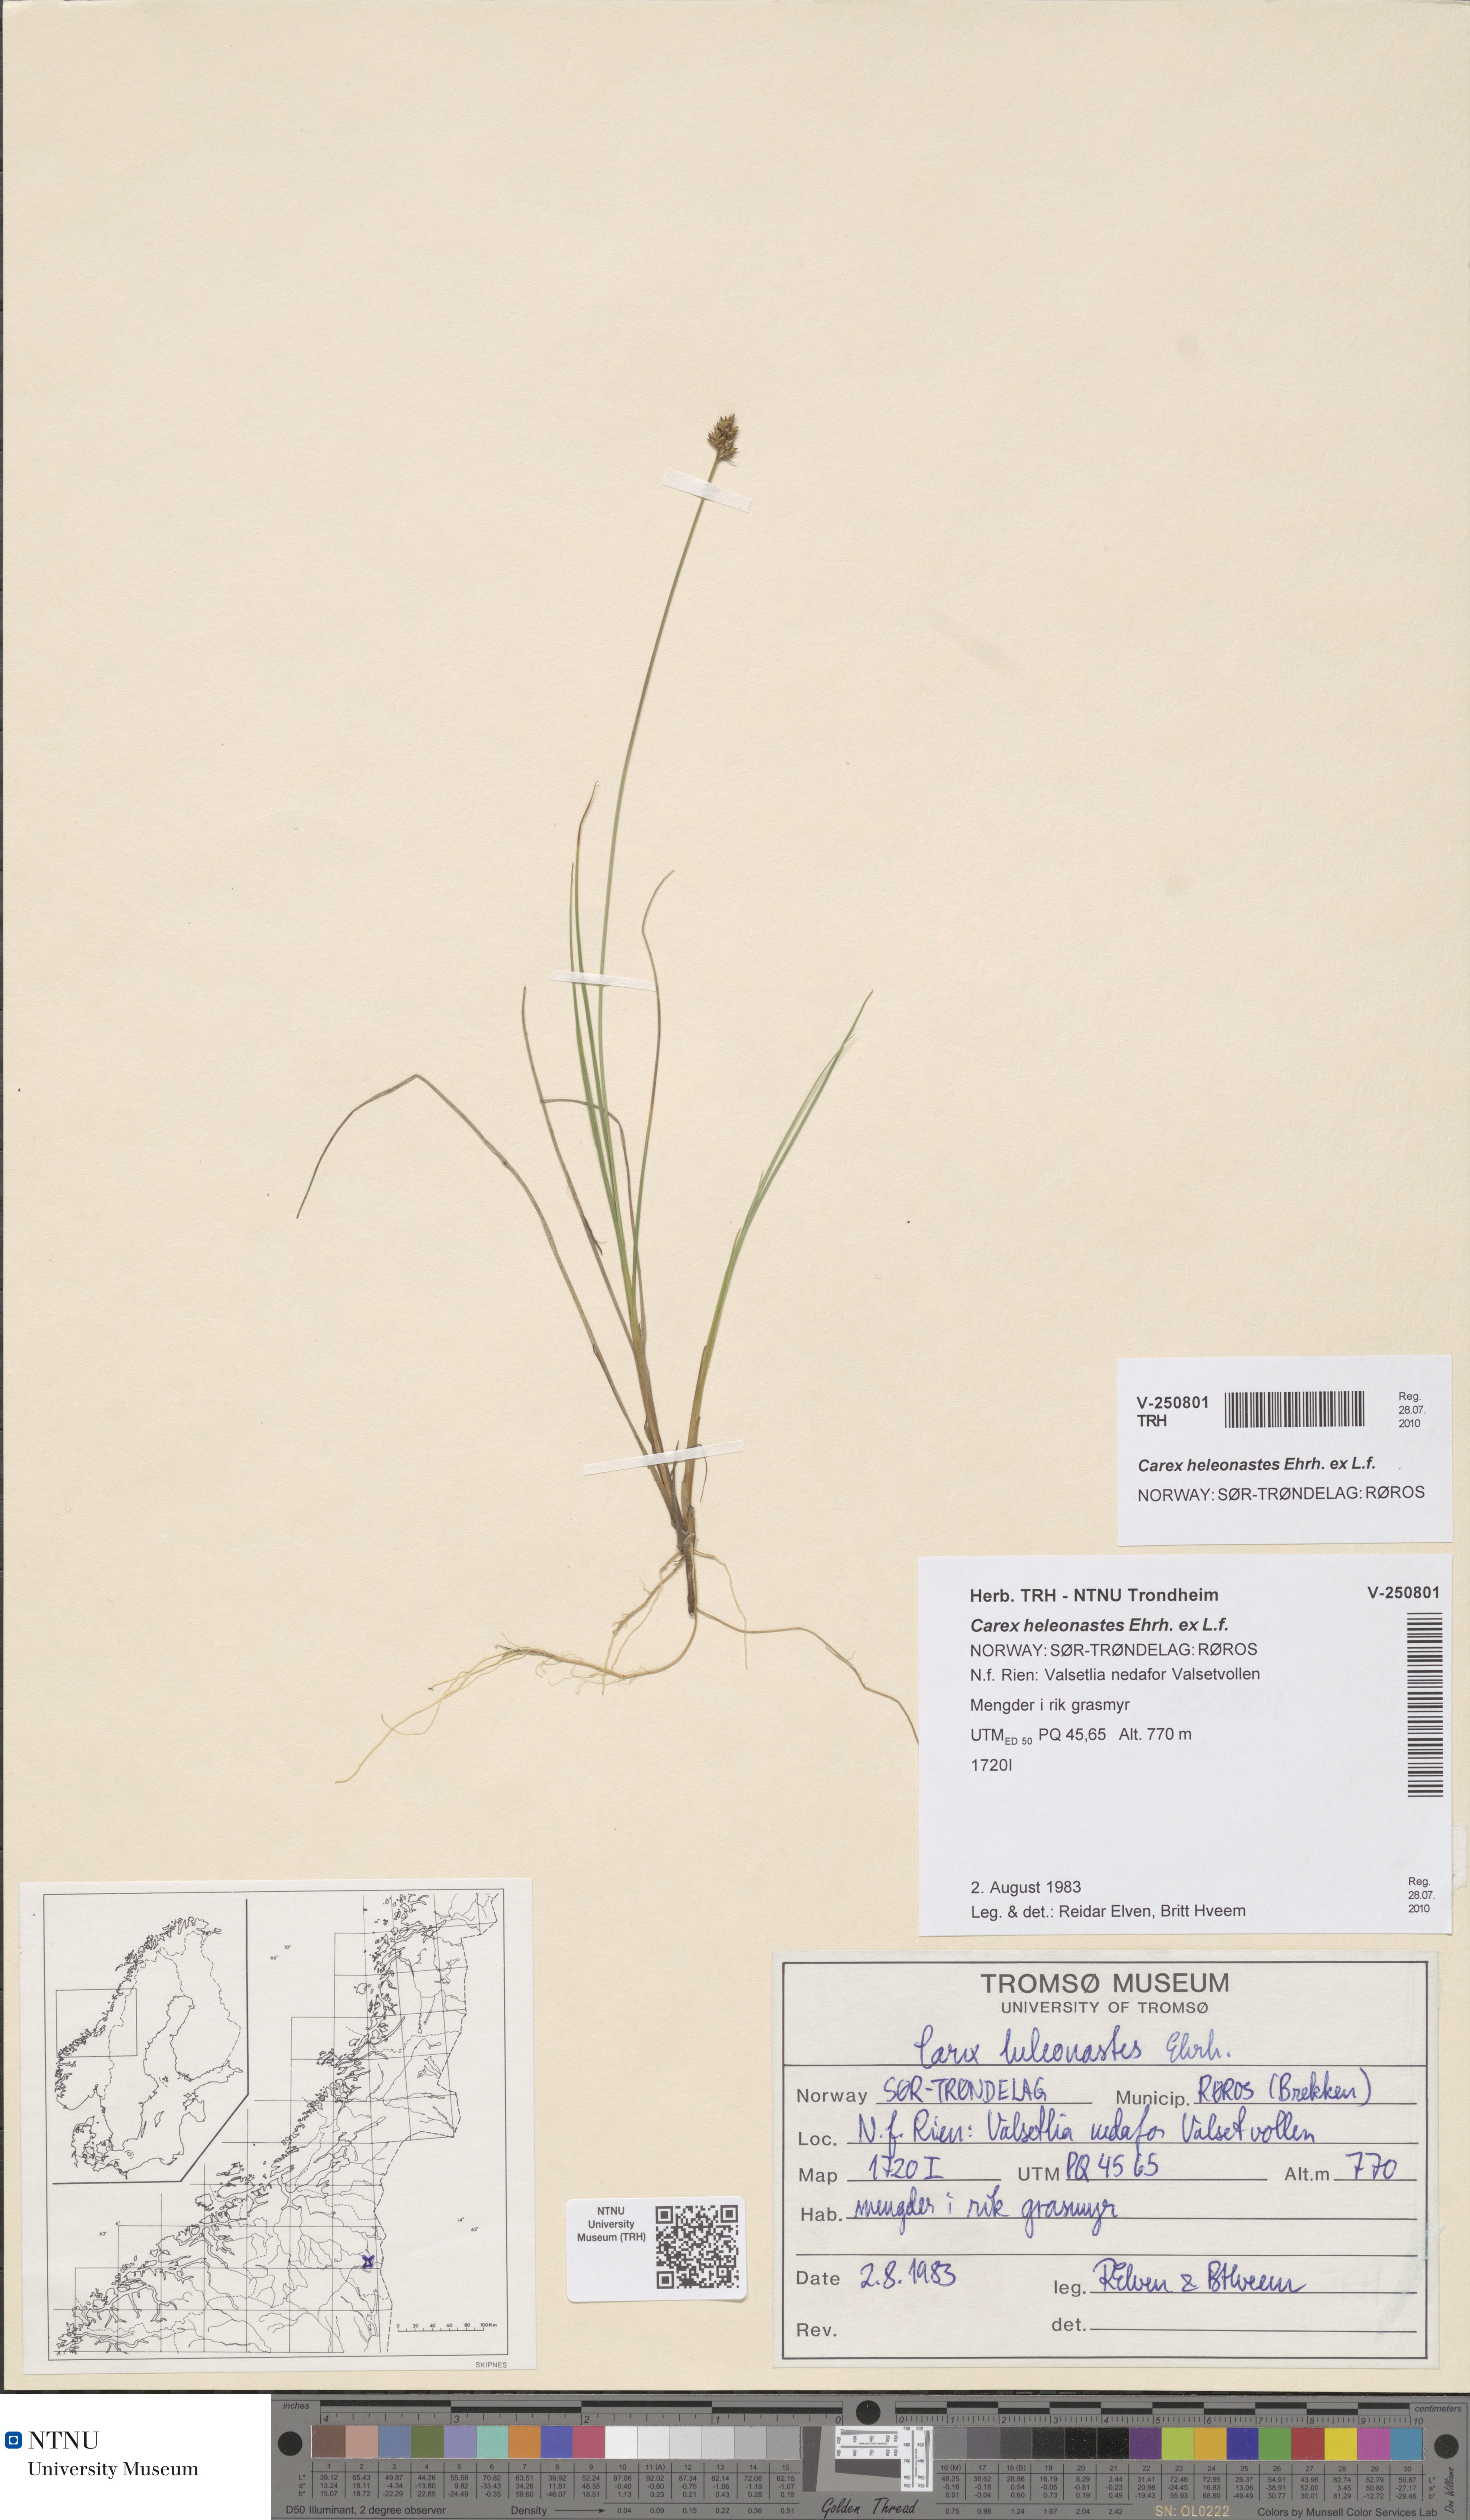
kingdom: Plantae
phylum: Tracheophyta
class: Liliopsida
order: Poales
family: Cyperaceae
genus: Carex
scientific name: Carex heleonastes
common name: Hudson bay sedge
